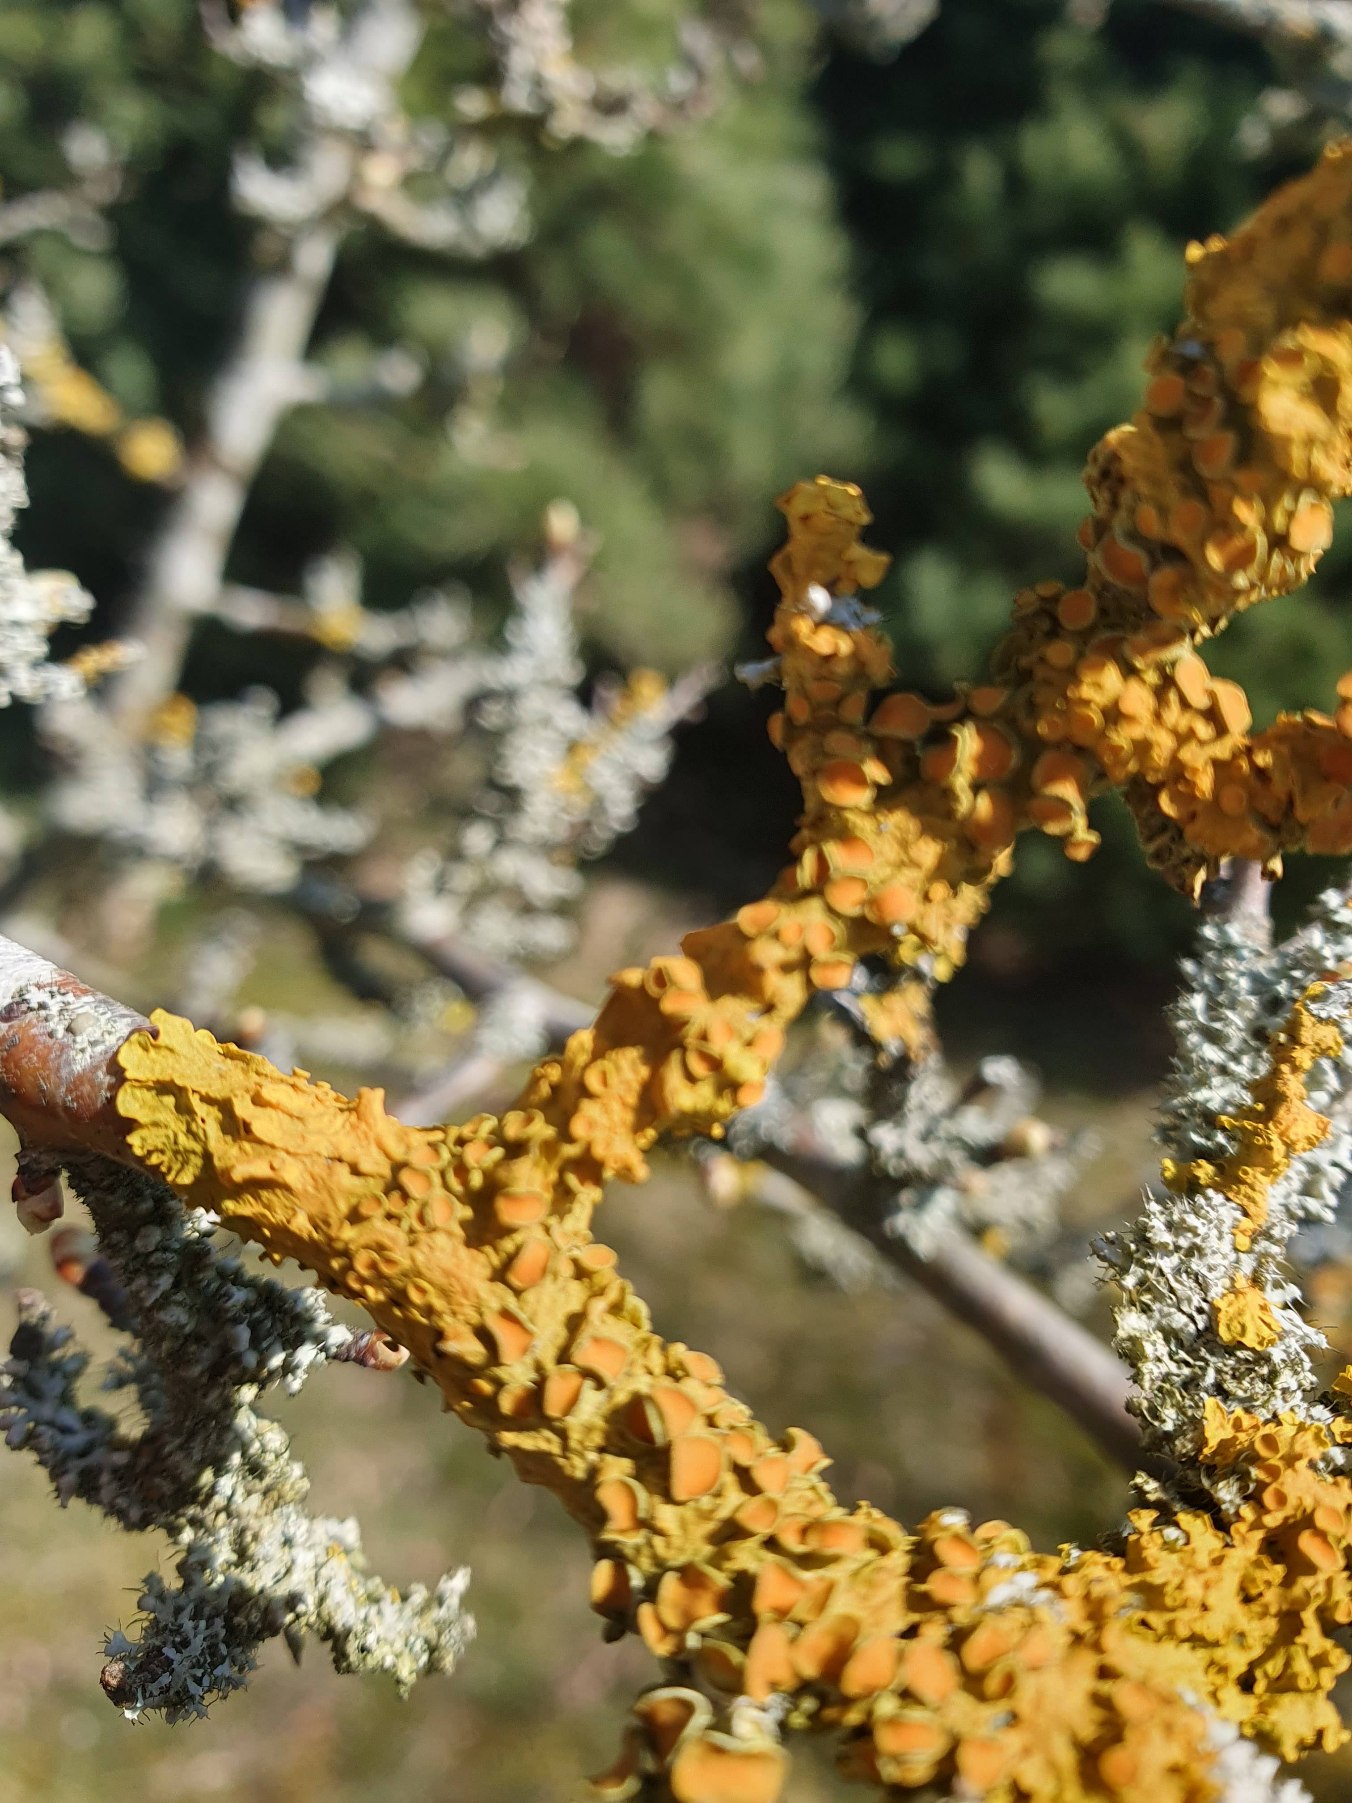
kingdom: Fungi
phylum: Ascomycota
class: Lecanoromycetes
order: Teloschistales
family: Teloschistaceae
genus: Xanthoria
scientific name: Xanthoria parietina
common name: Almindelig væggelav
